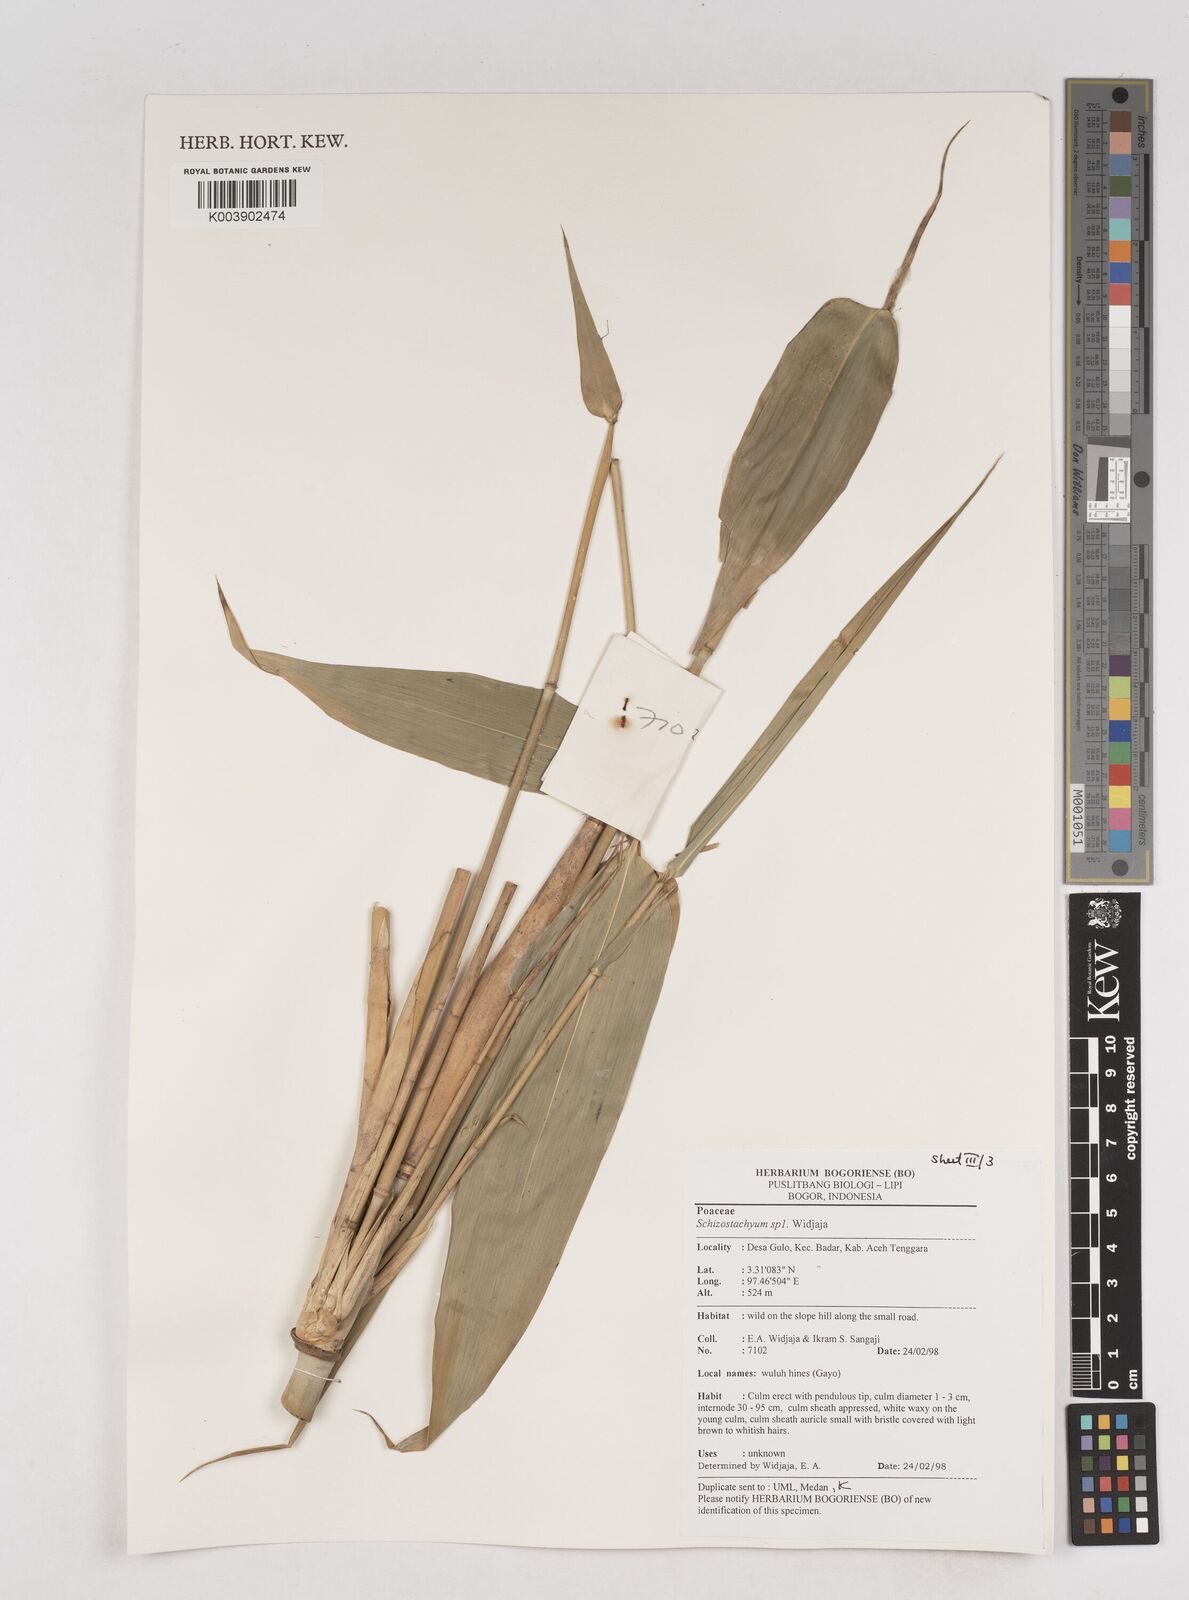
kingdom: Plantae
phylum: Tracheophyta
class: Liliopsida
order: Poales
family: Poaceae
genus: Schizostachyum
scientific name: Schizostachyum
